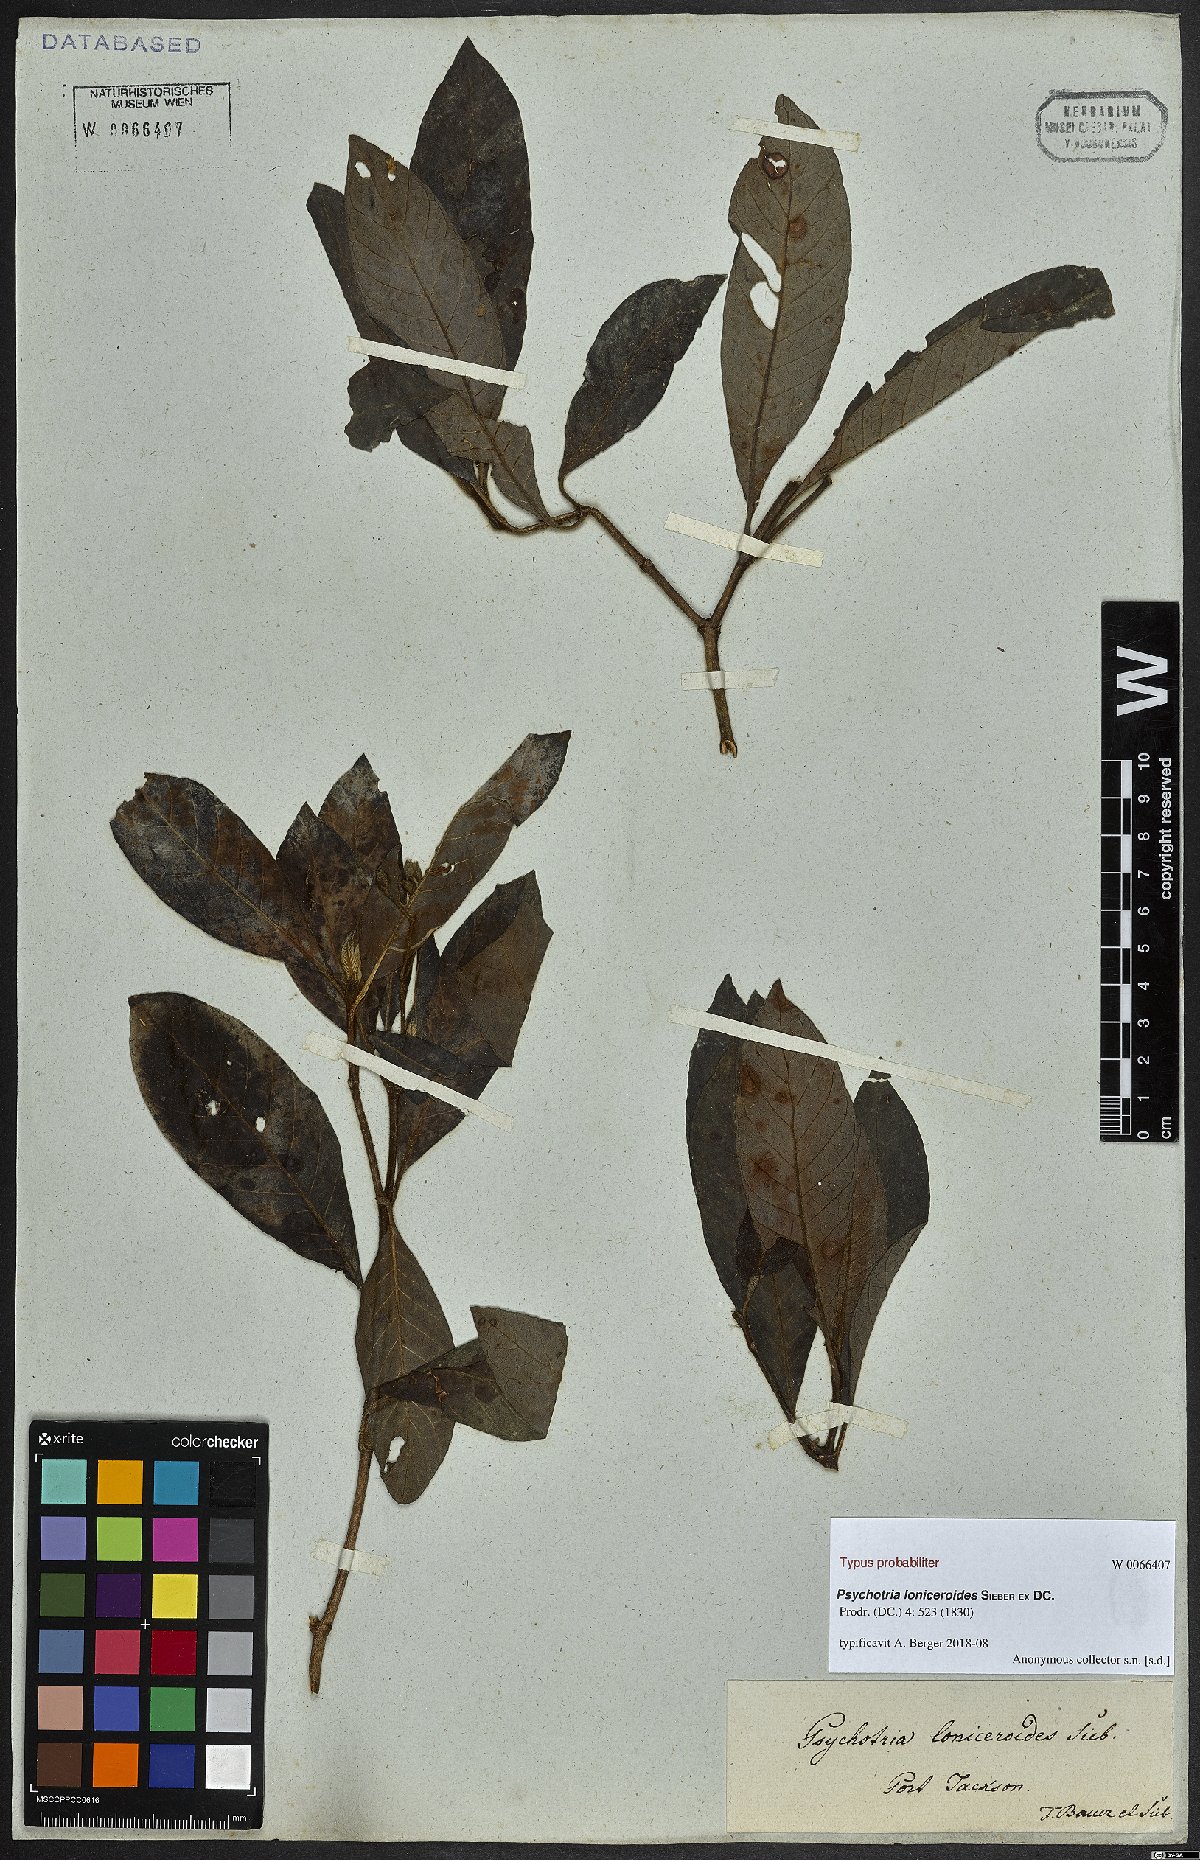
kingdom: Plantae
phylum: Tracheophyta
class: Magnoliopsida
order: Gentianales
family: Rubiaceae
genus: Psychotria
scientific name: Psychotria loniceroides
